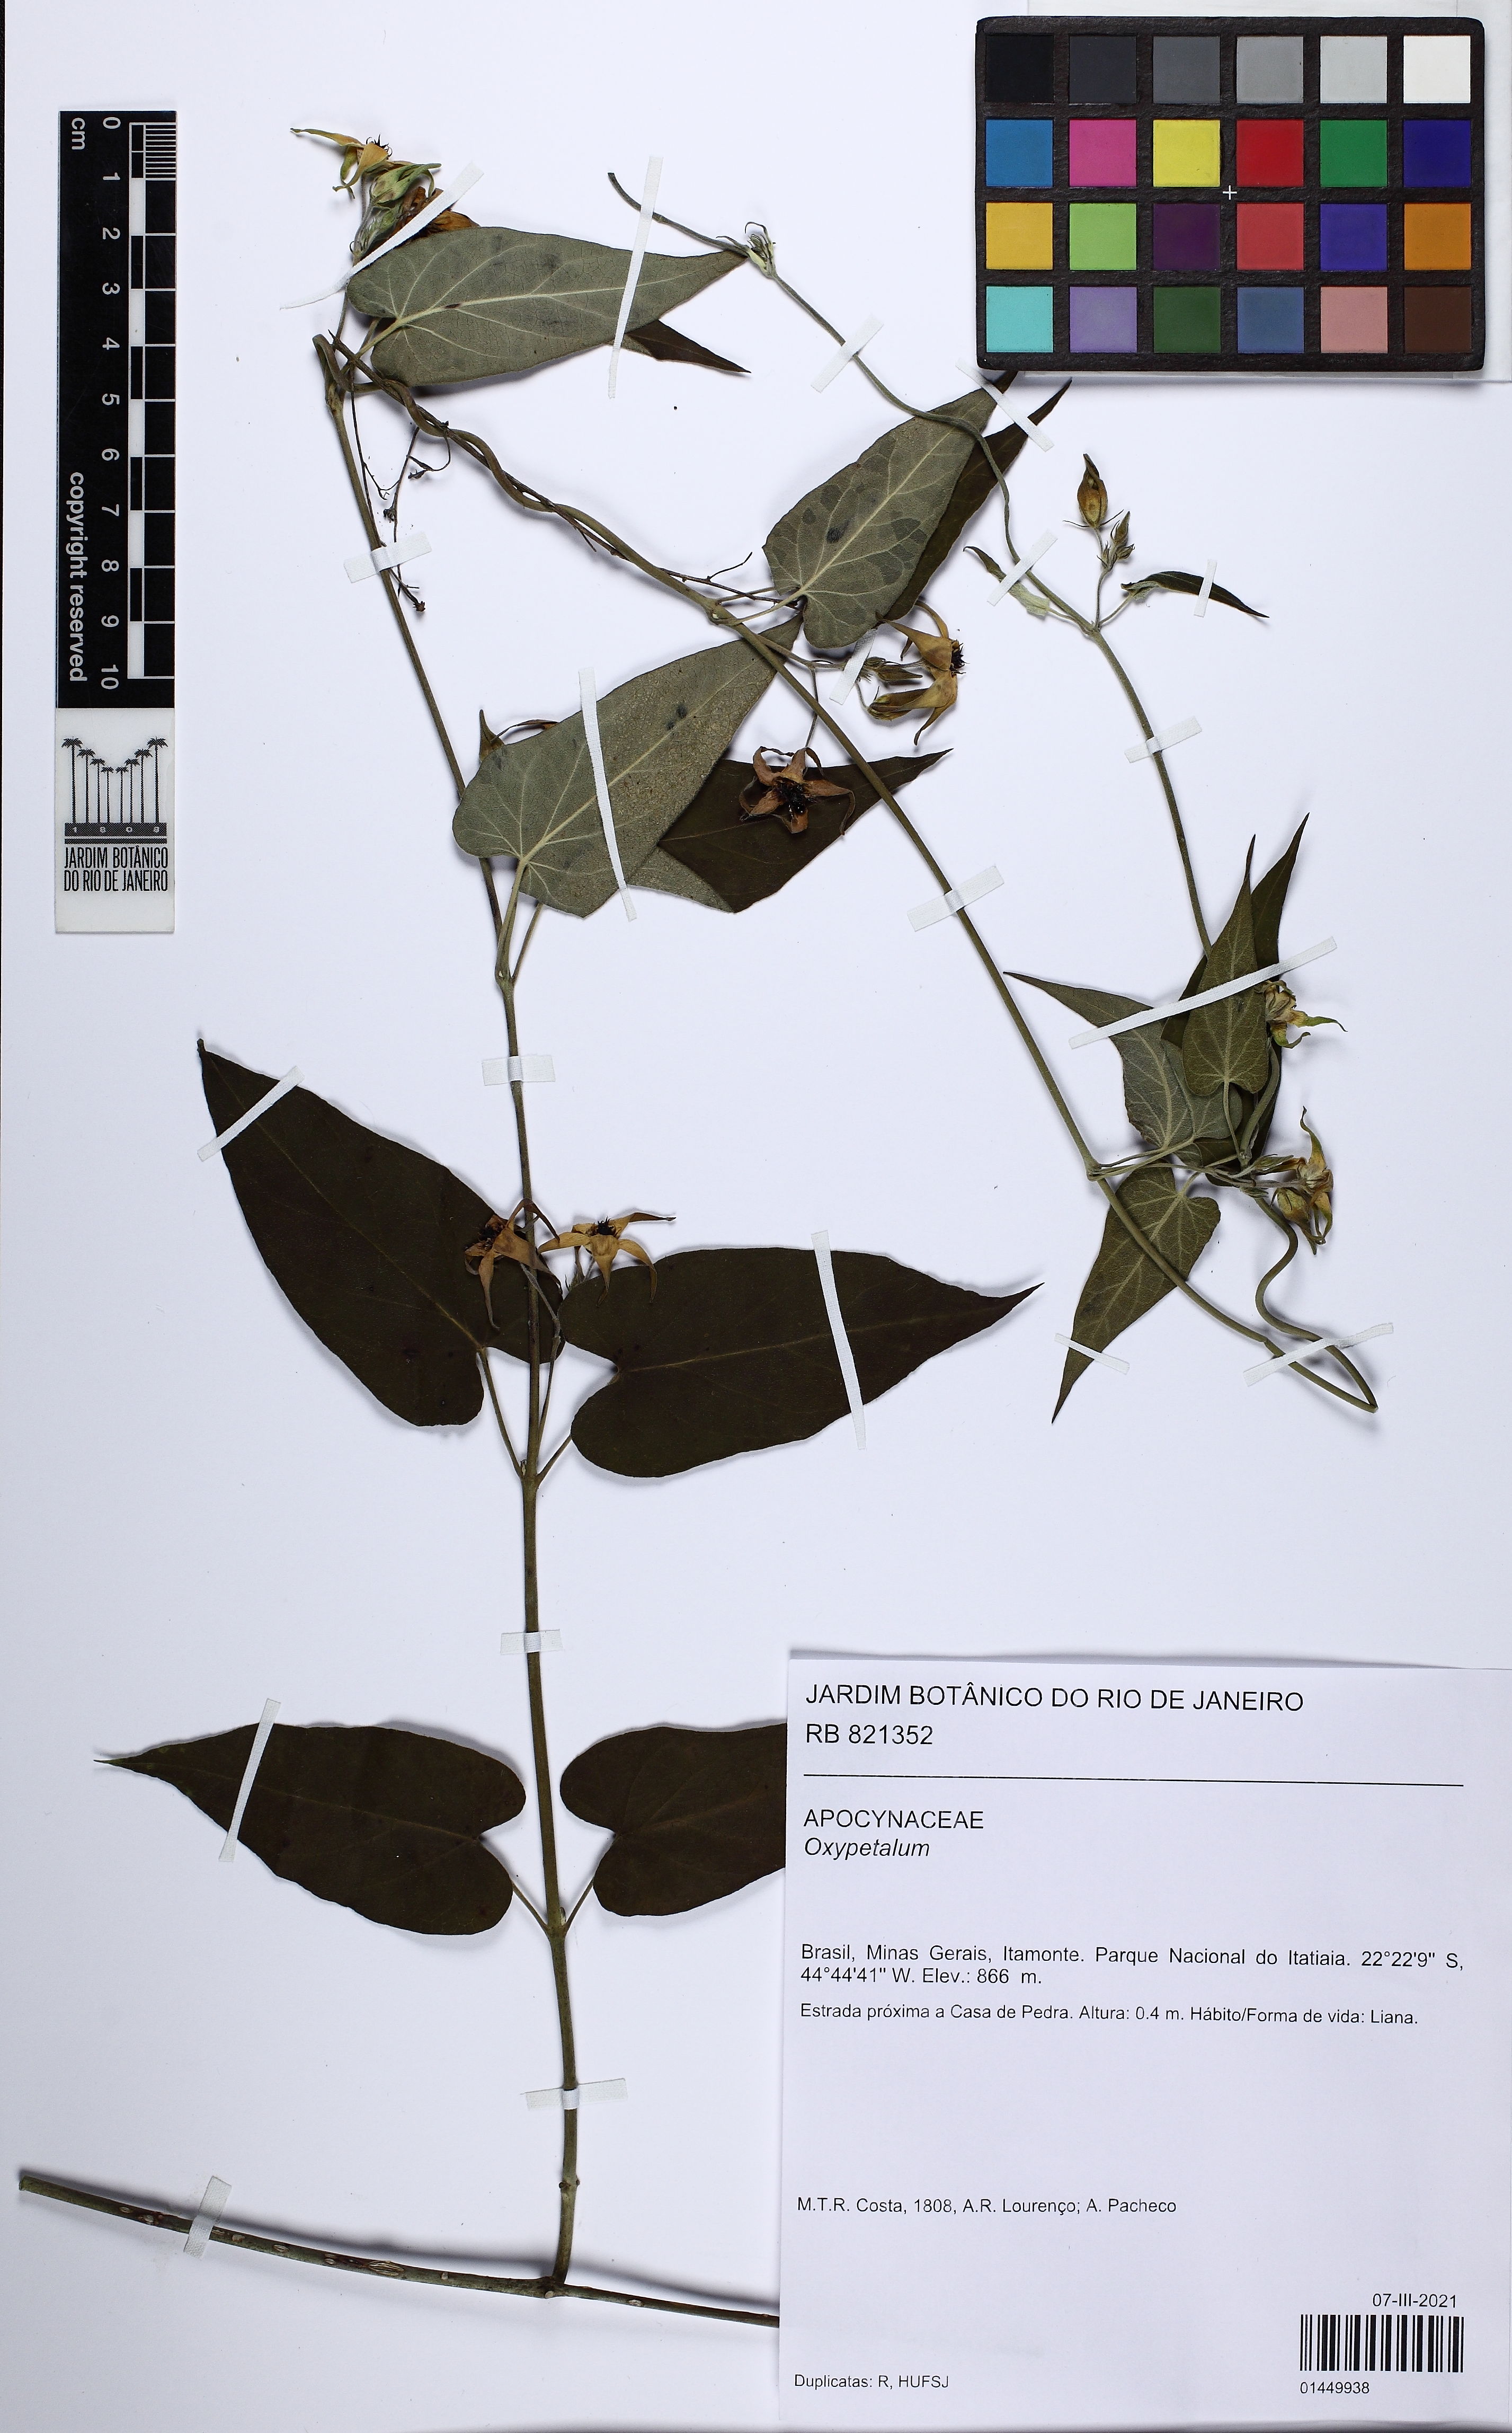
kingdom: Plantae
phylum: Tracheophyta
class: Magnoliopsida
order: Gentianales
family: Apocynaceae
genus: Oxypetalum
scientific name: Oxypetalum
